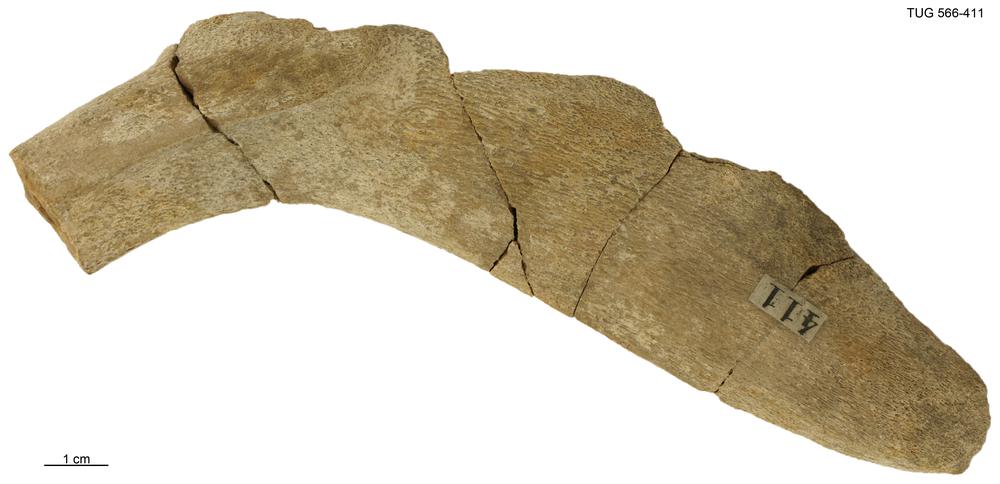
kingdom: Animalia
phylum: Chordata
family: Homostiidae
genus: Homostius
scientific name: Homostius
